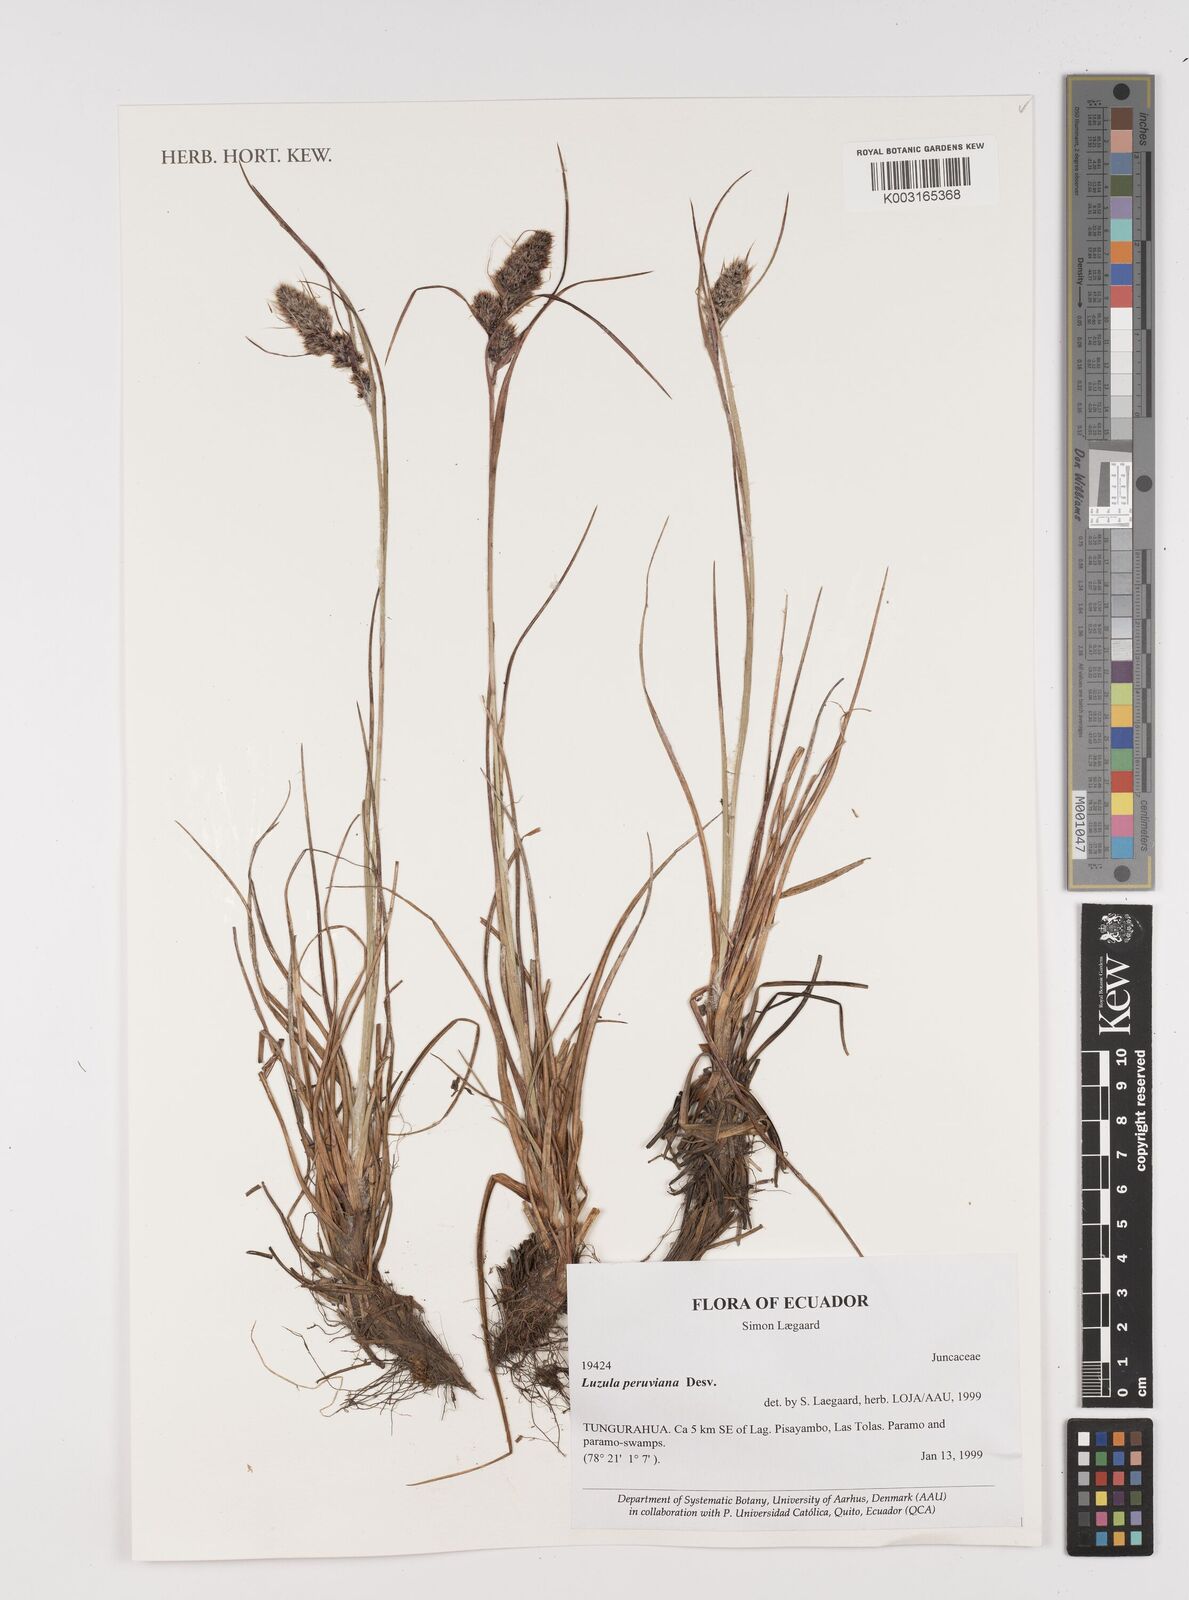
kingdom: Plantae
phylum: Tracheophyta
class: Liliopsida
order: Poales
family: Juncaceae
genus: Luzula
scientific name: Luzula peruviana
